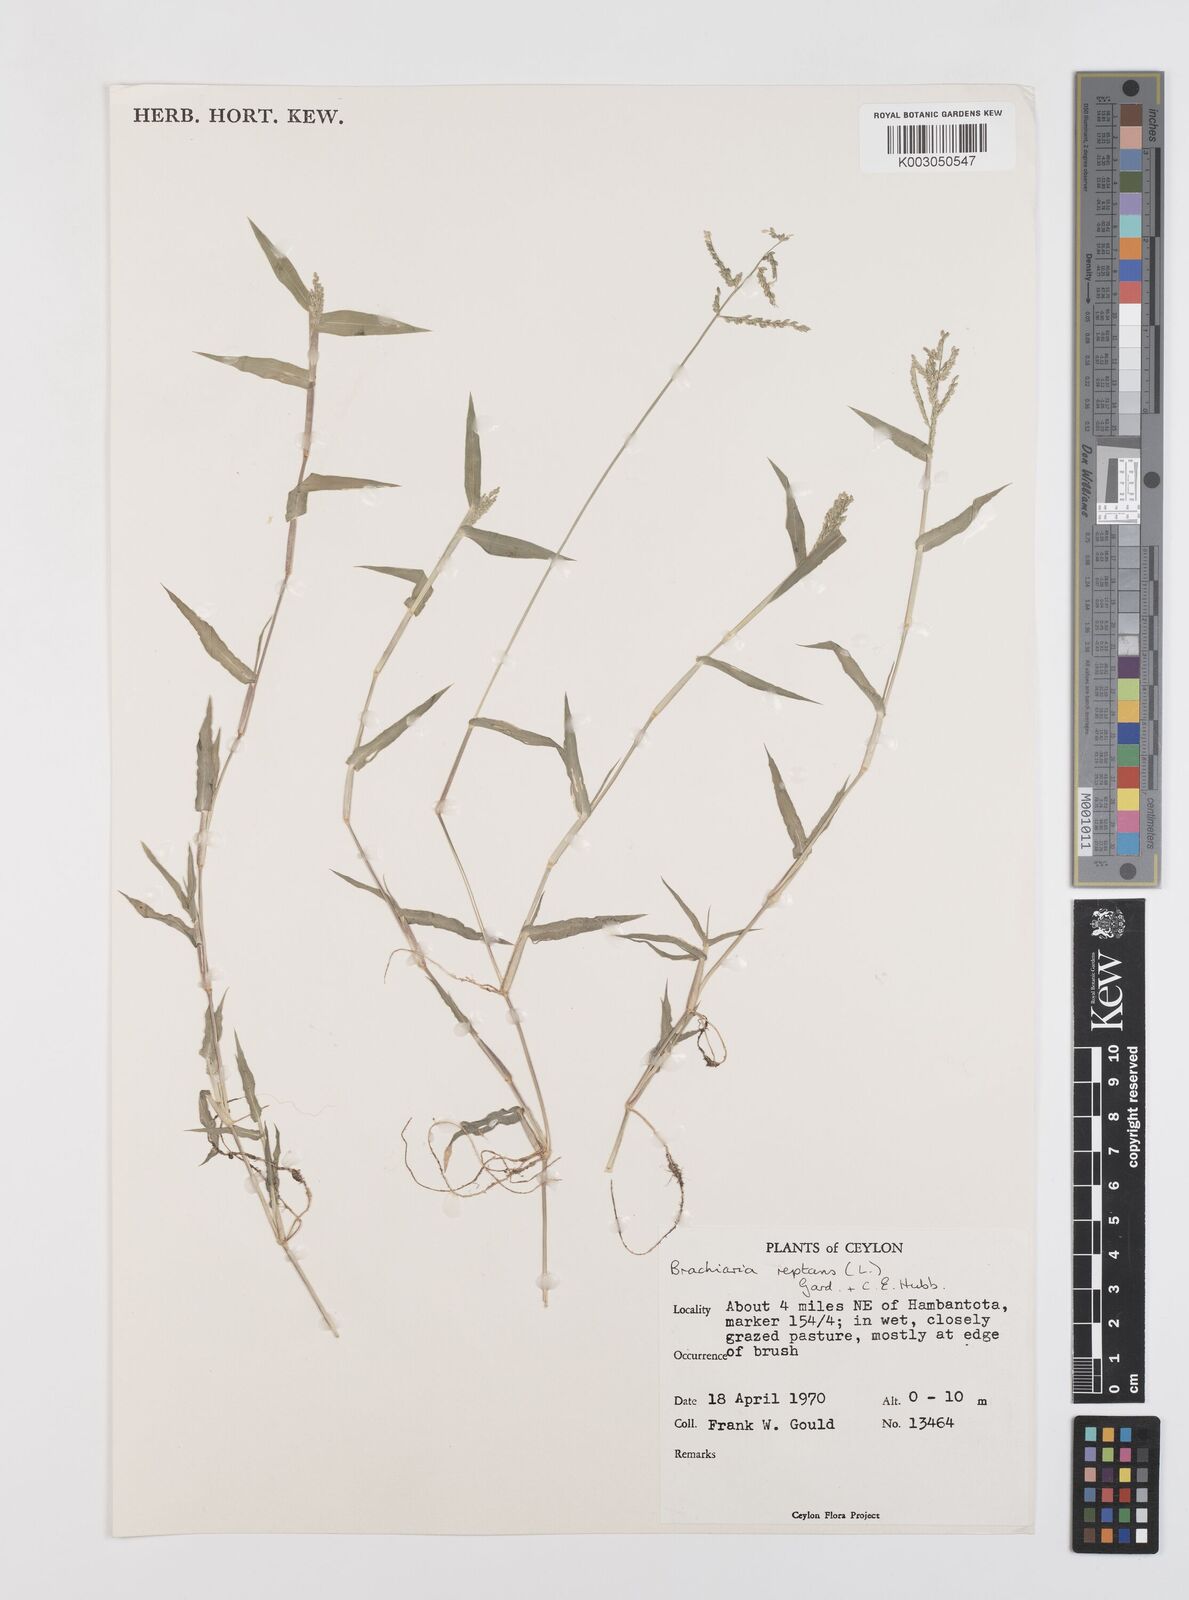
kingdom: Plantae
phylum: Tracheophyta
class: Liliopsida
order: Poales
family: Poaceae
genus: Urochloa
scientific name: Urochloa reptans
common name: Sprawling signalgrass
